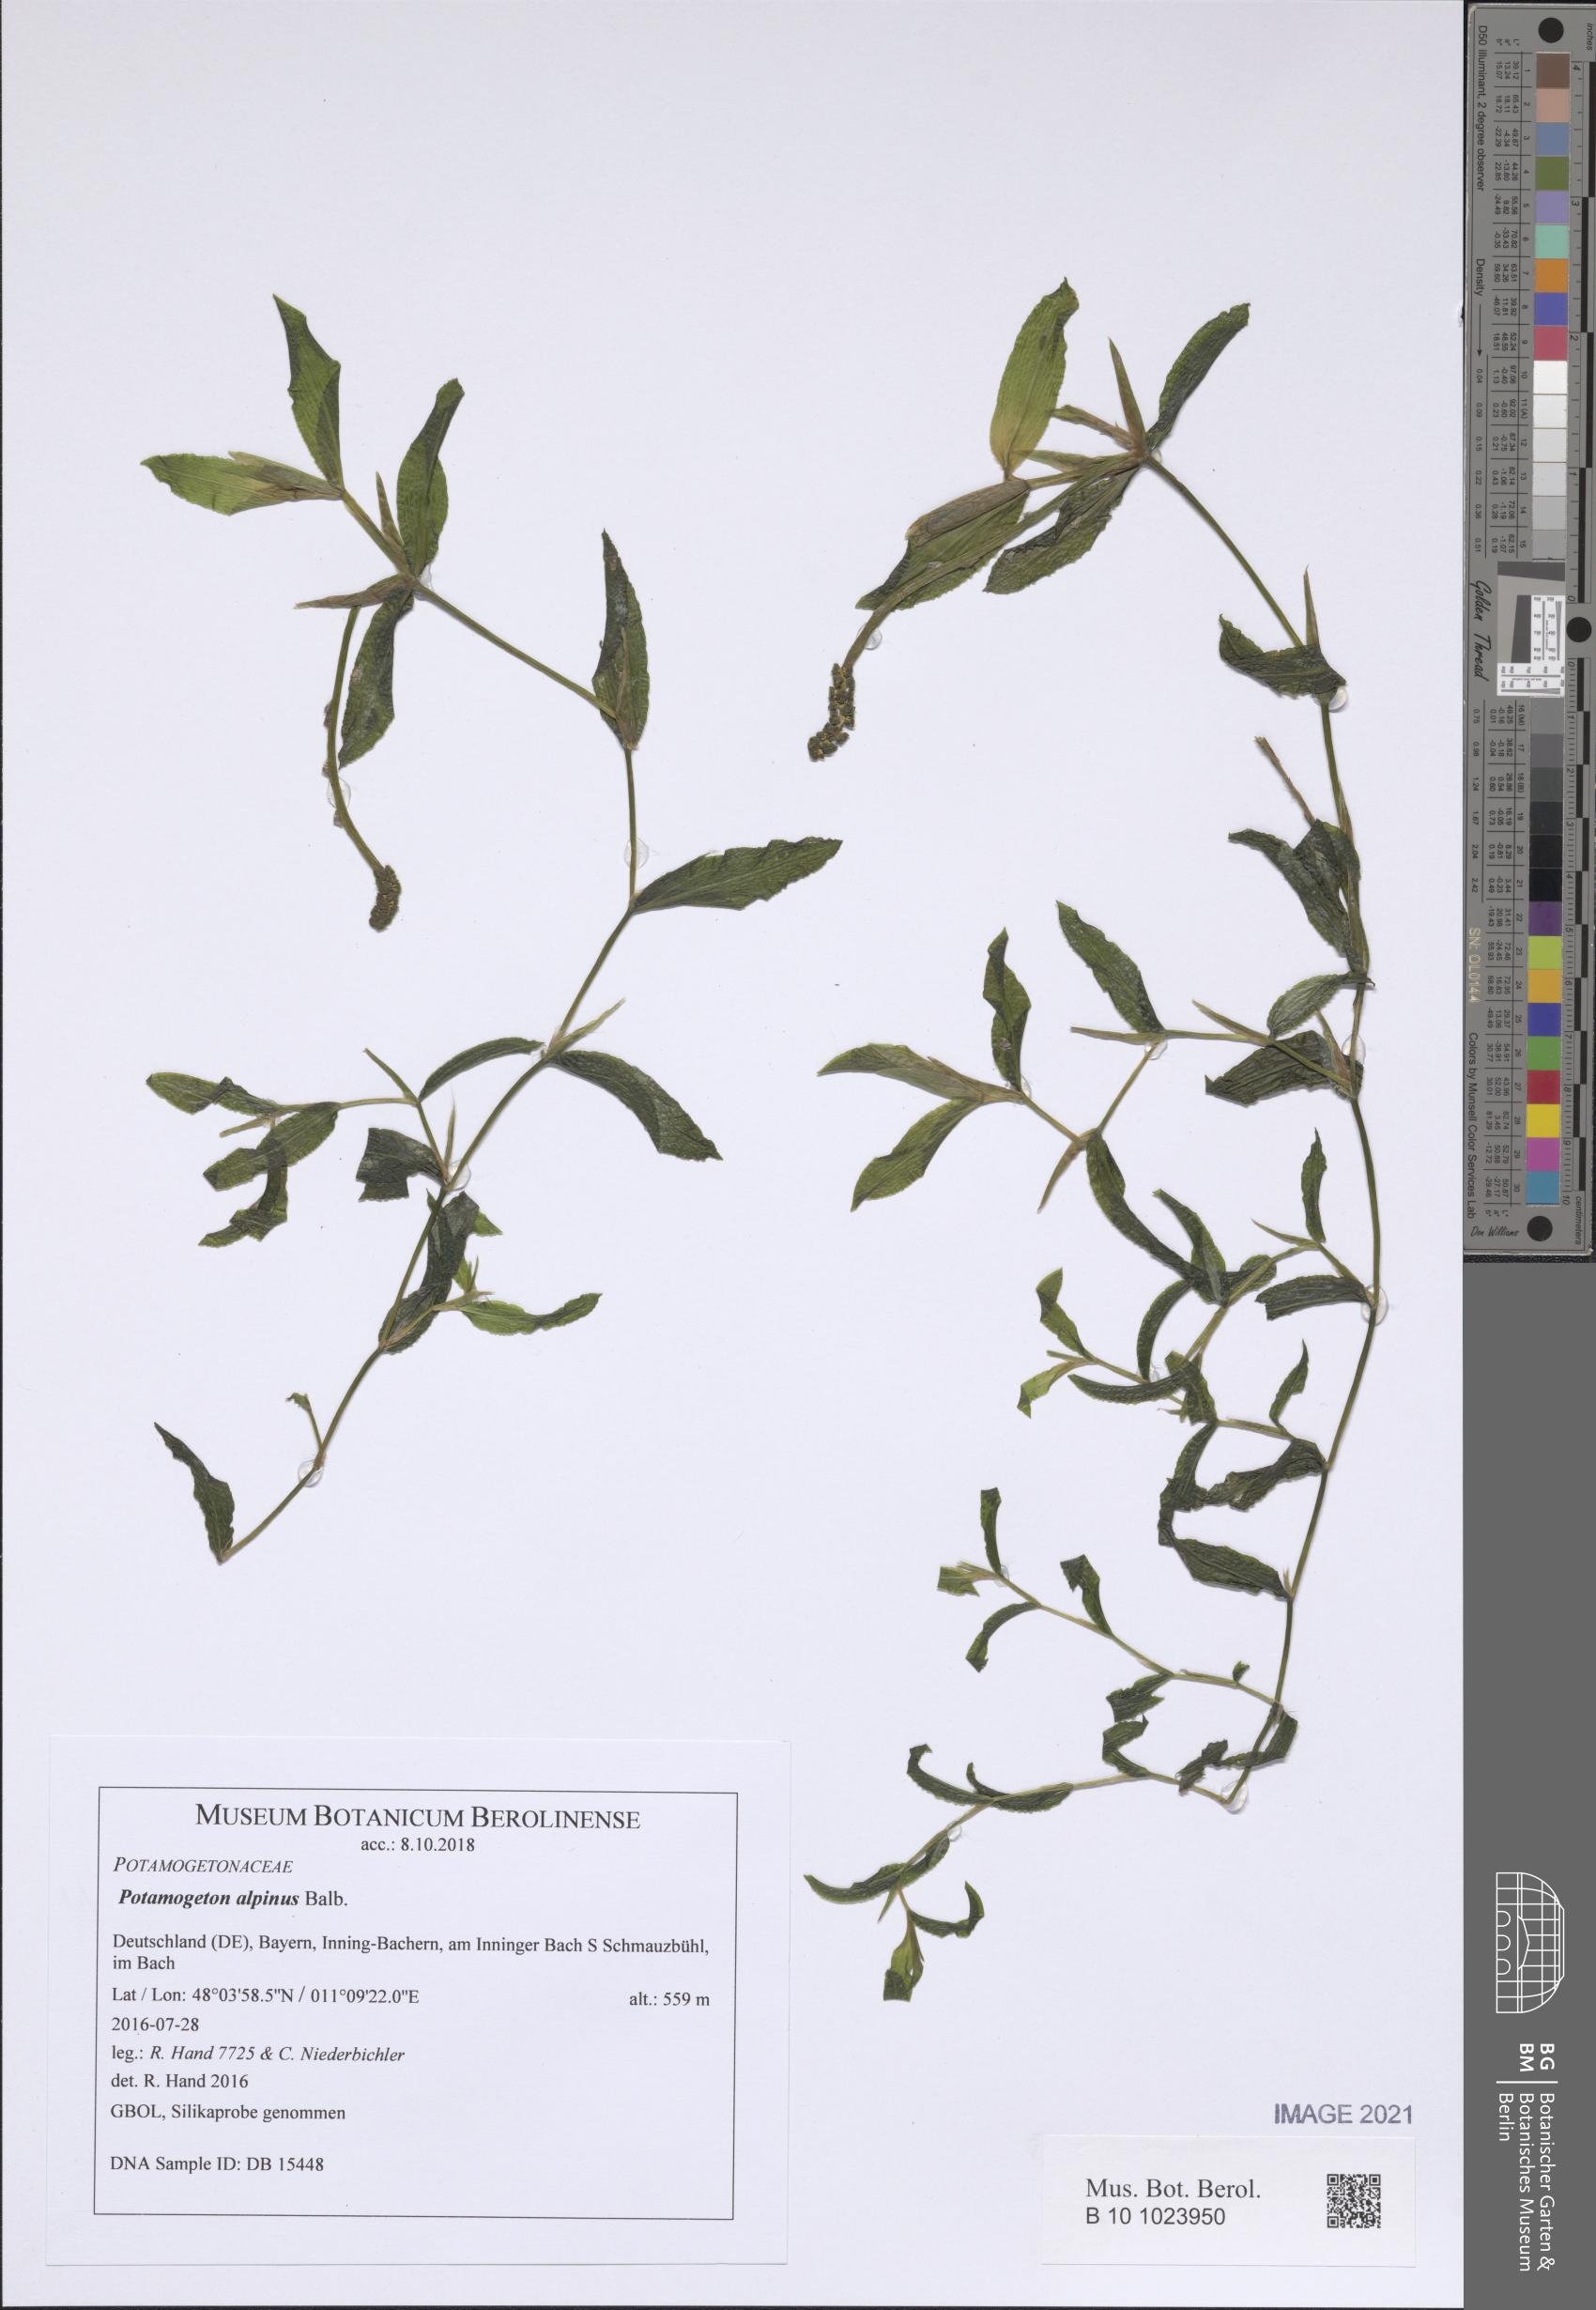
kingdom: Plantae
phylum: Tracheophyta
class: Liliopsida
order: Alismatales
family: Potamogetonaceae
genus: Potamogeton
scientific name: Potamogeton alpinus
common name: Red pondweed
